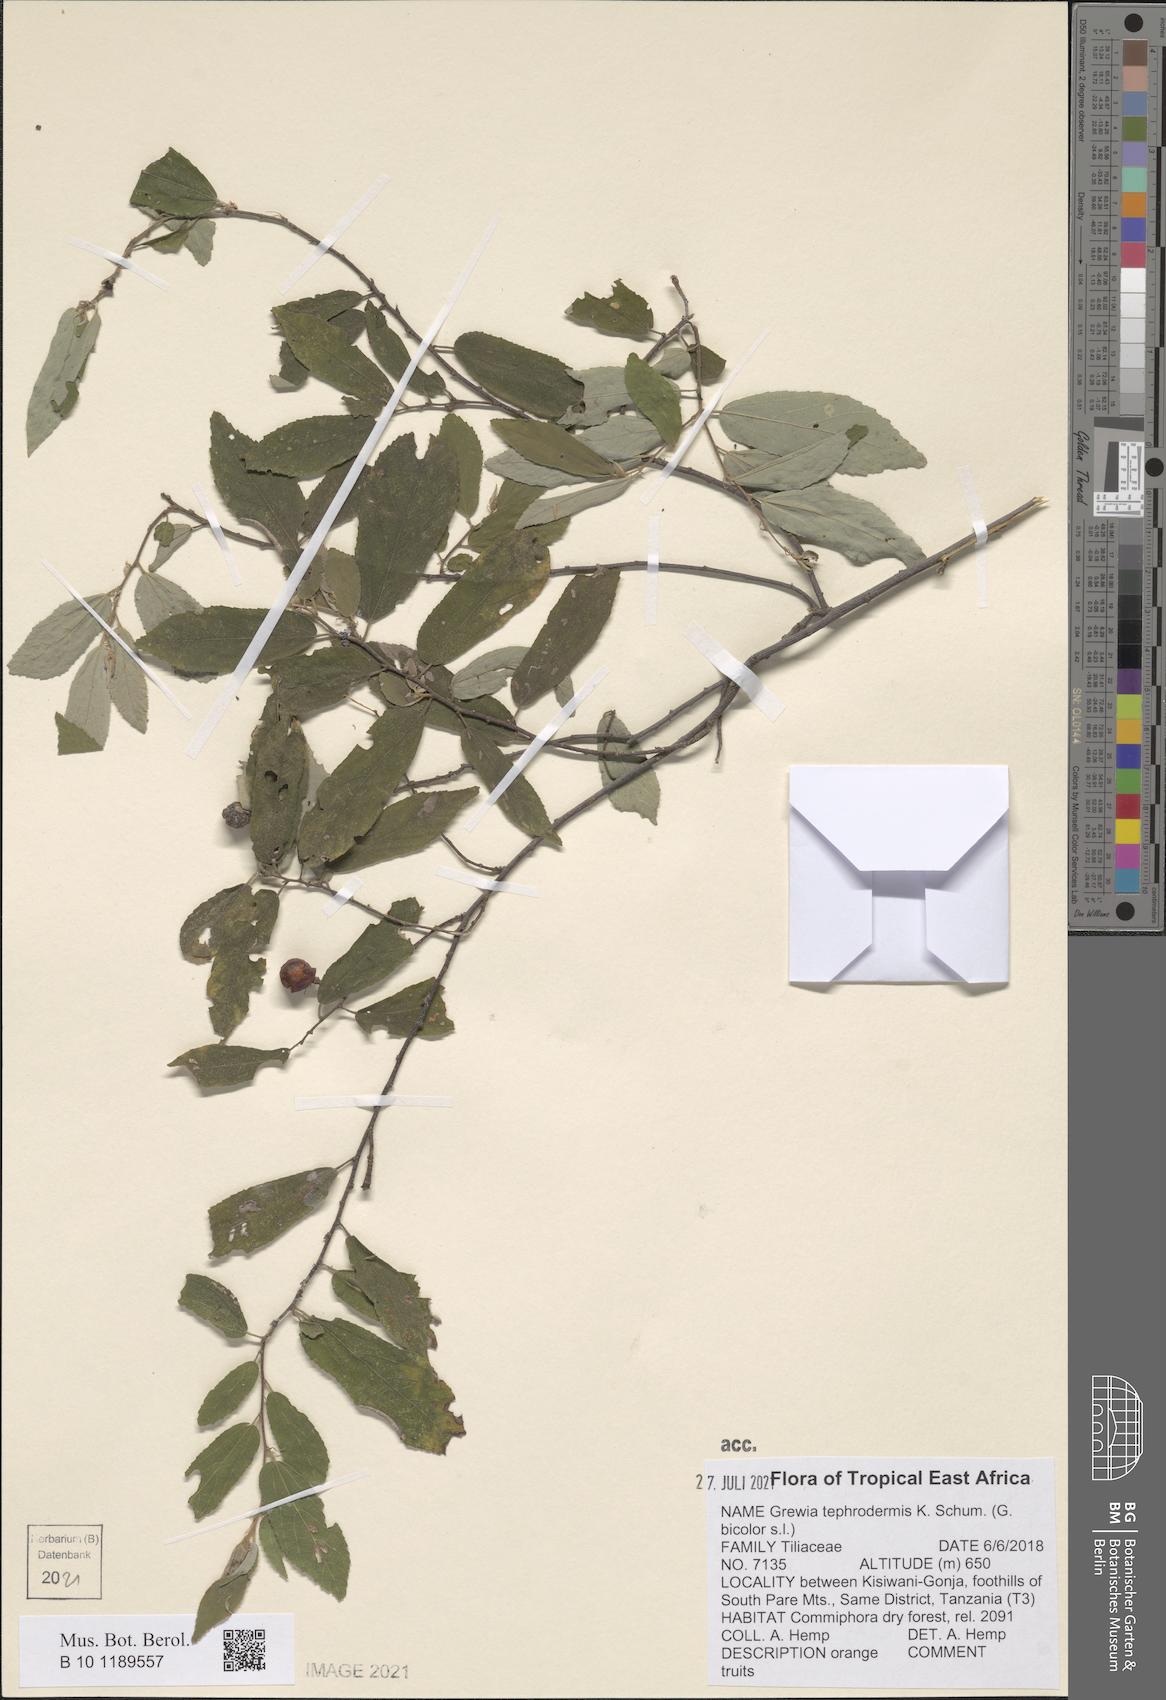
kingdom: Plantae
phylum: Tracheophyta
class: Magnoliopsida
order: Malvales
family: Malvaceae
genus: Grewia
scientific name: Grewia tephrodermis
